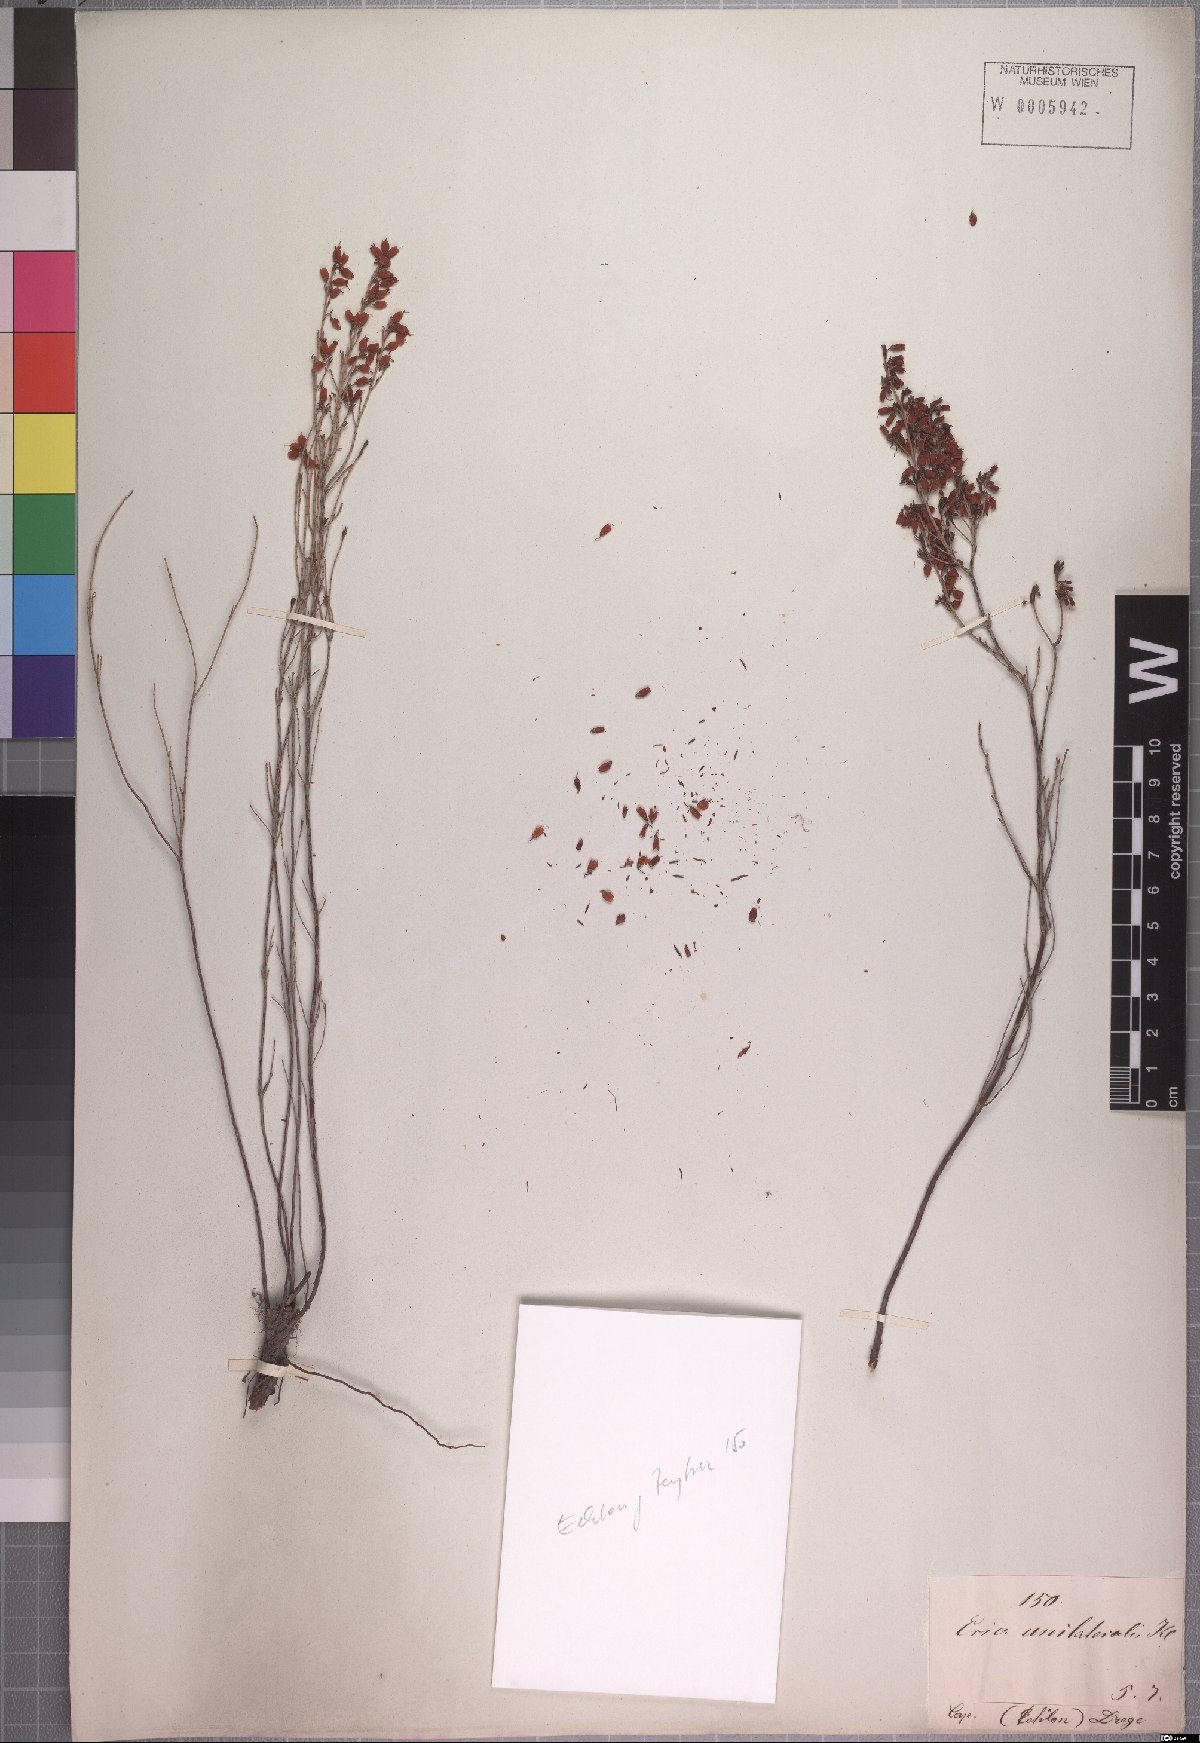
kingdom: Plantae
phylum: Tracheophyta
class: Magnoliopsida
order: Ericales
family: Ericaceae
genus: Erica
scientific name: Erica unilateralis
